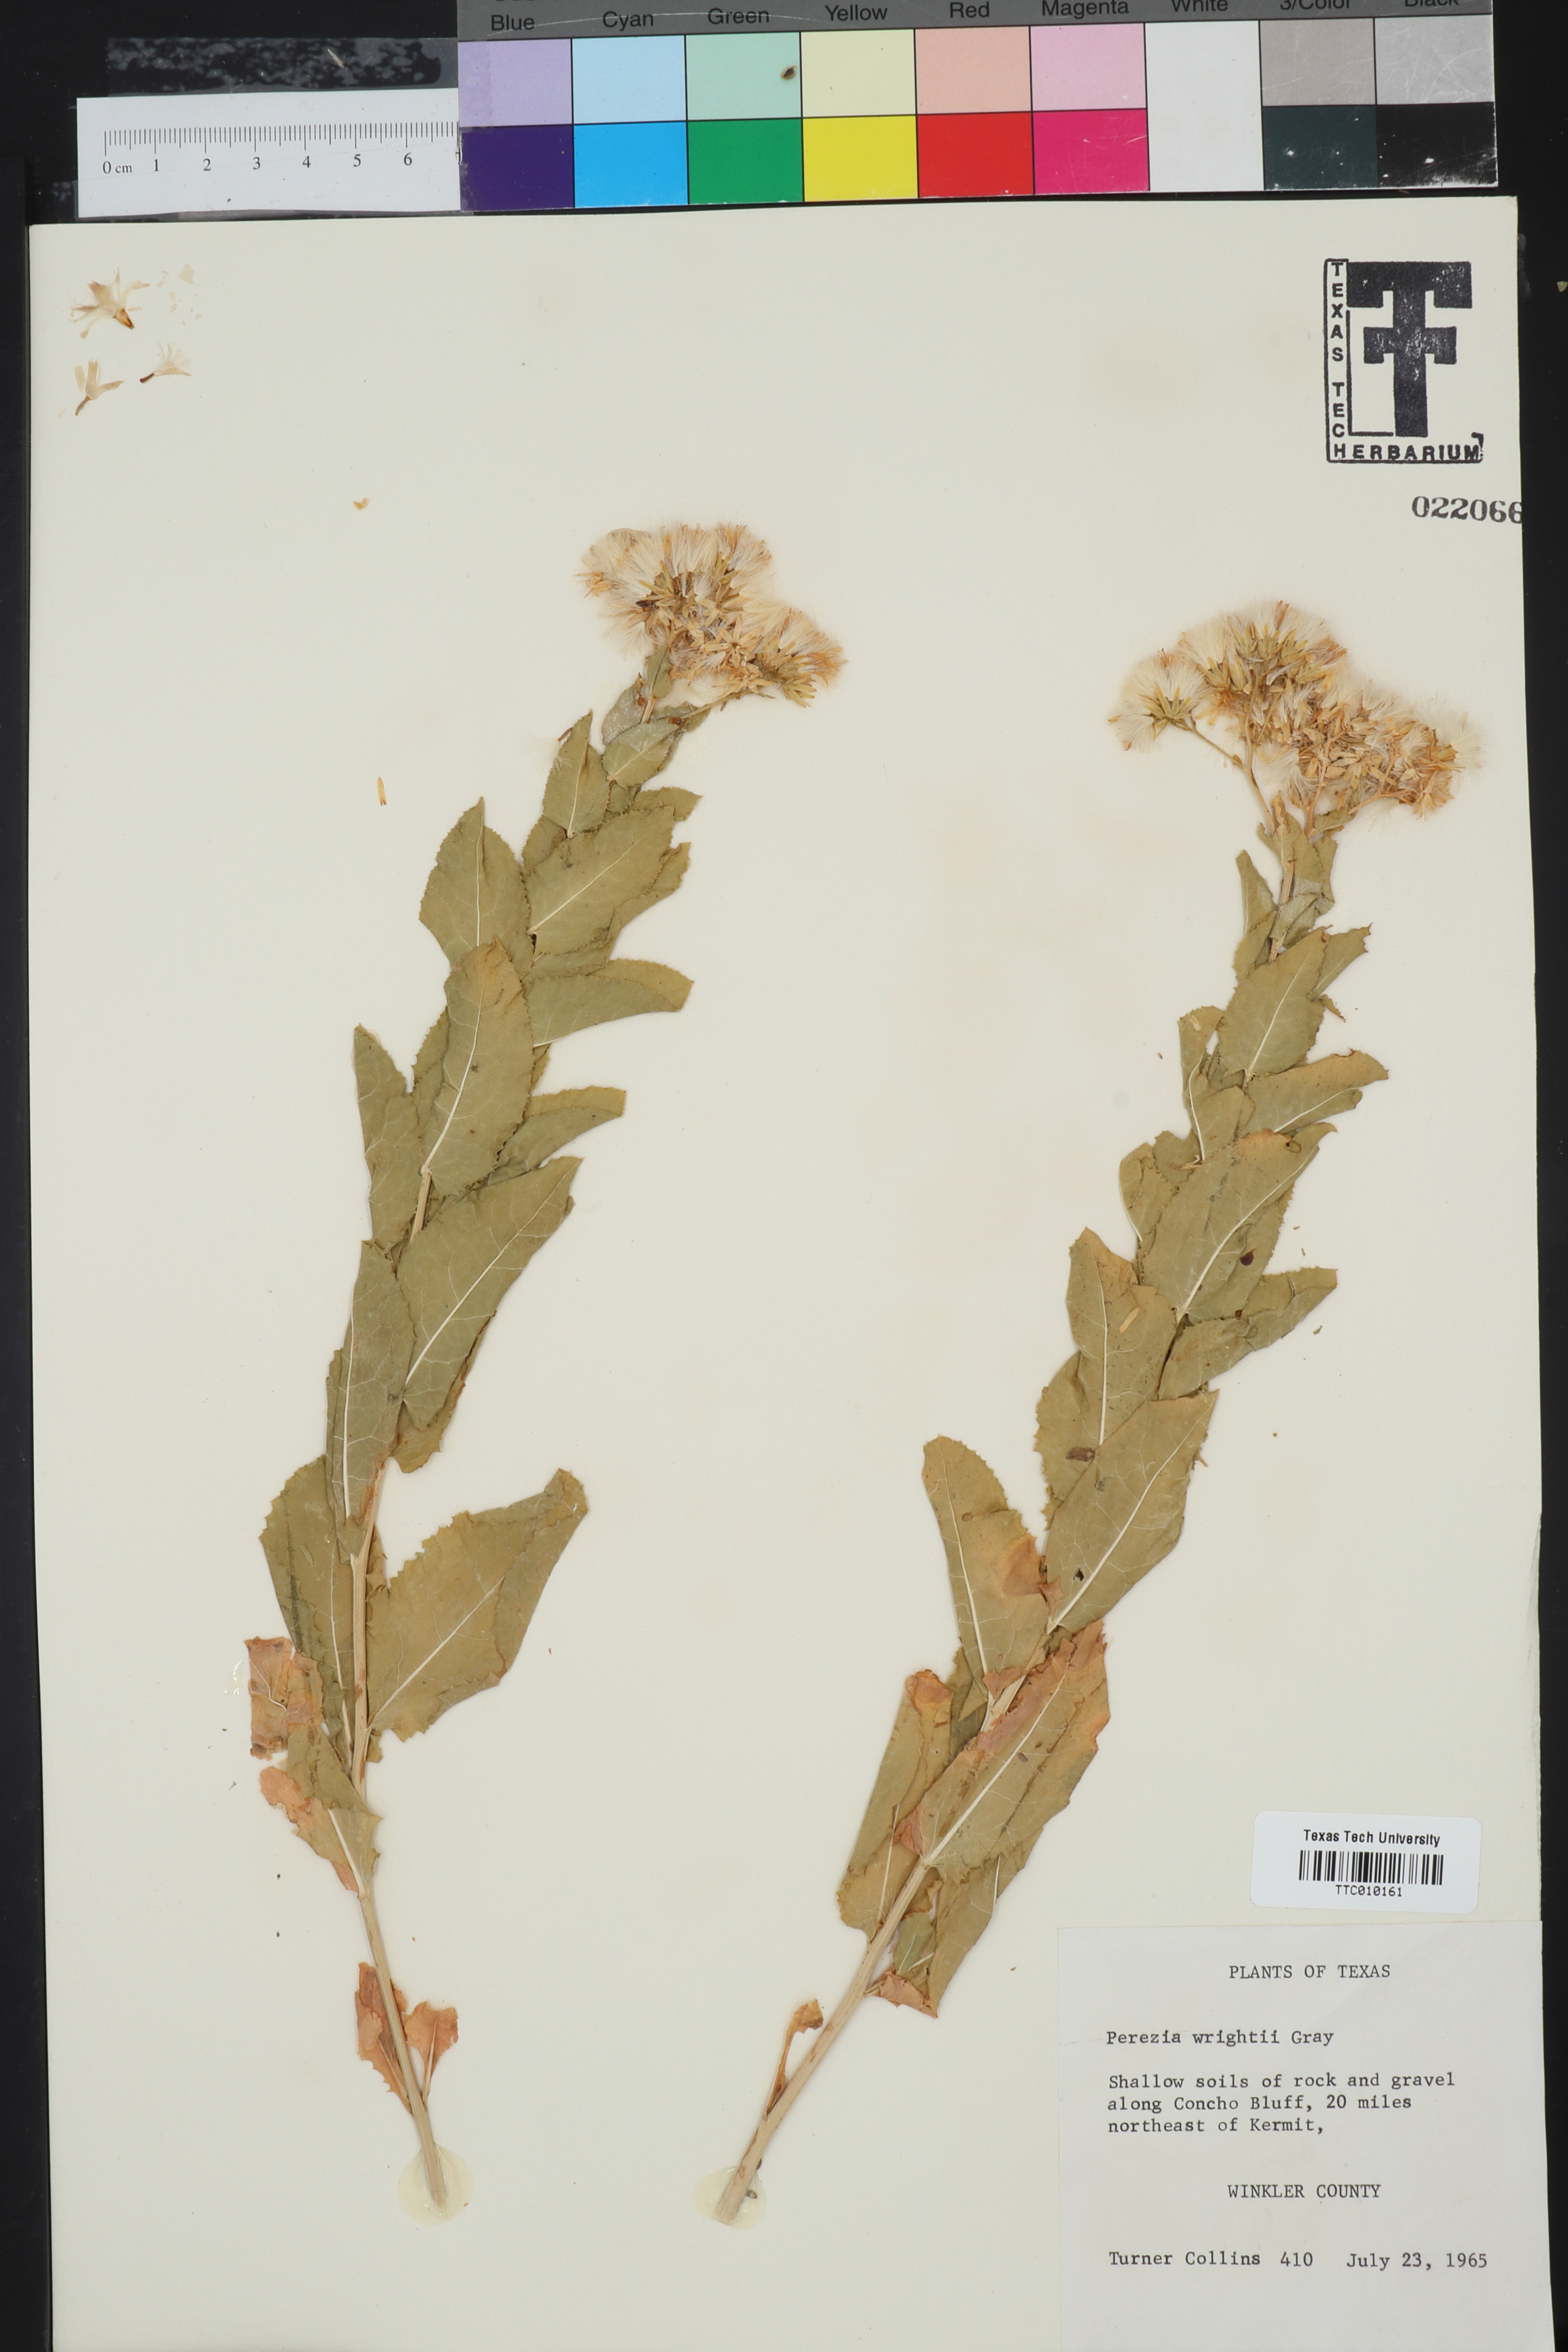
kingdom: Plantae
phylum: Tracheophyta
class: Magnoliopsida
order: Asterales
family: Asteraceae
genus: Acourtia
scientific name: Acourtia wrightii
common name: Brownfoot
